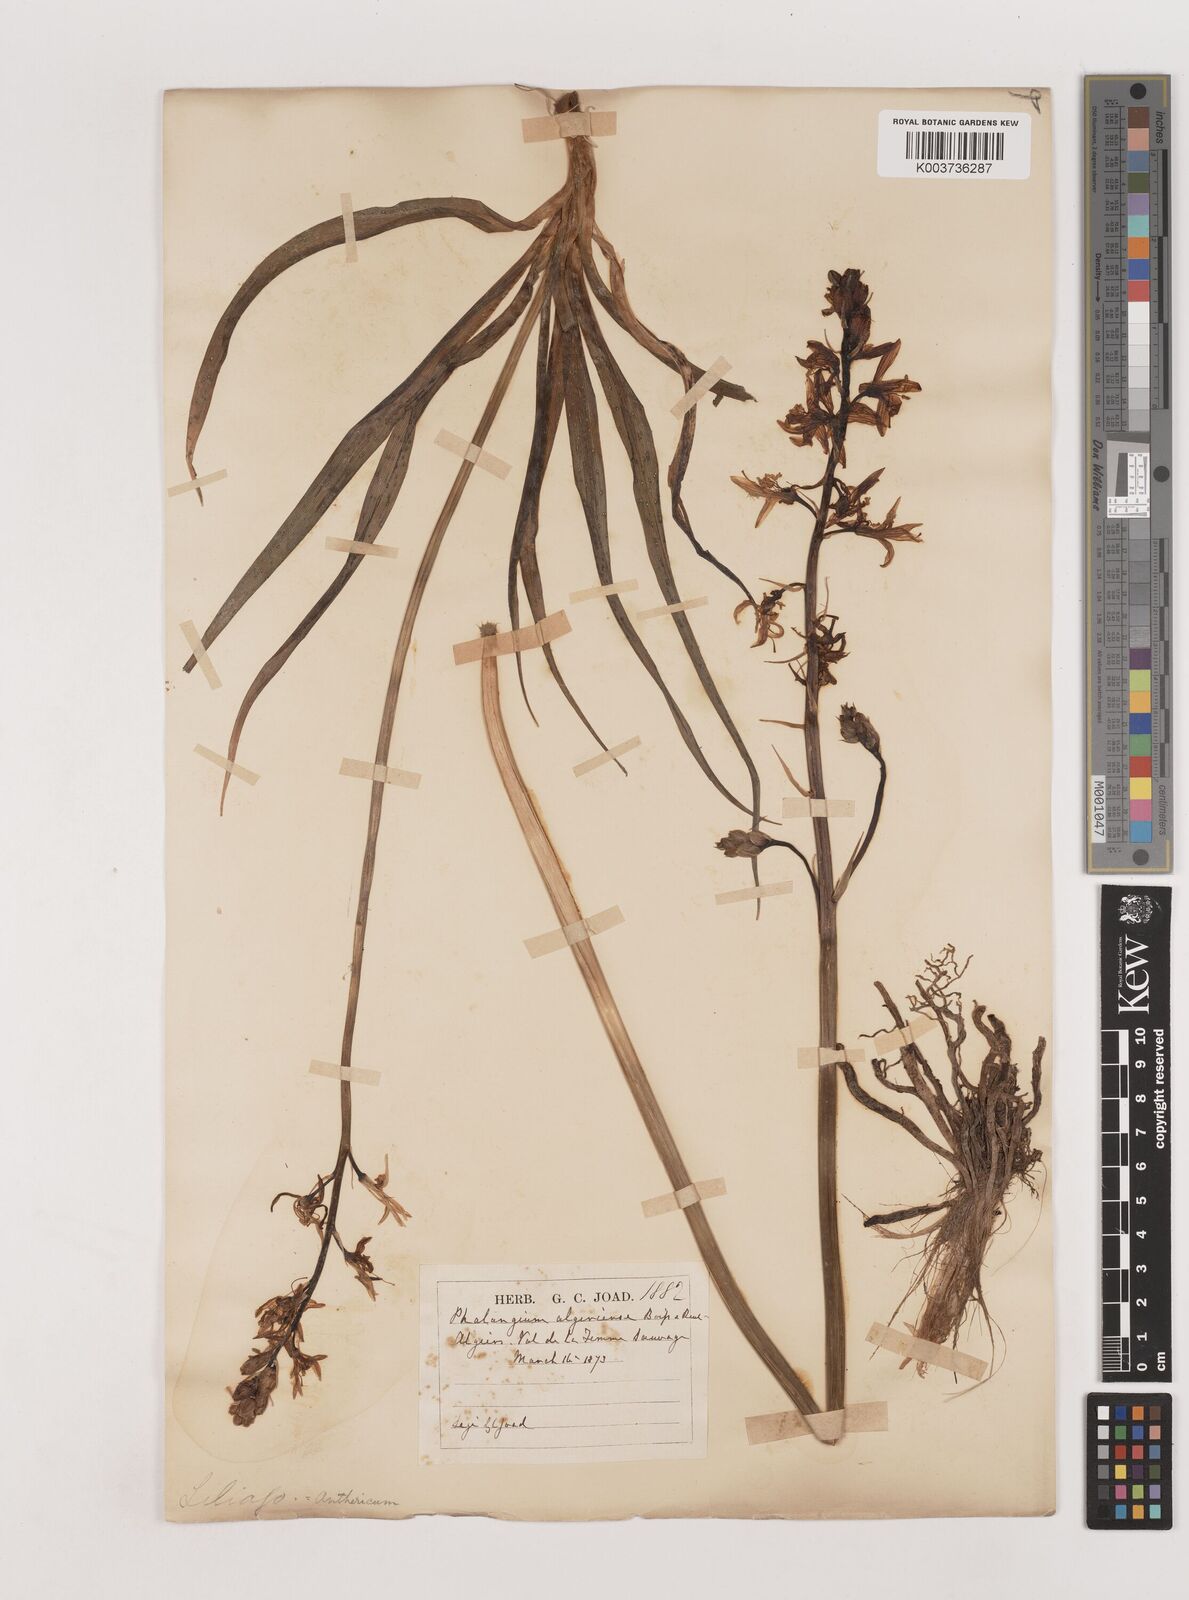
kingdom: Plantae
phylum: Tracheophyta
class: Liliopsida
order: Asparagales
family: Asparagaceae
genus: Anthericum
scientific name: Anthericum liliago
